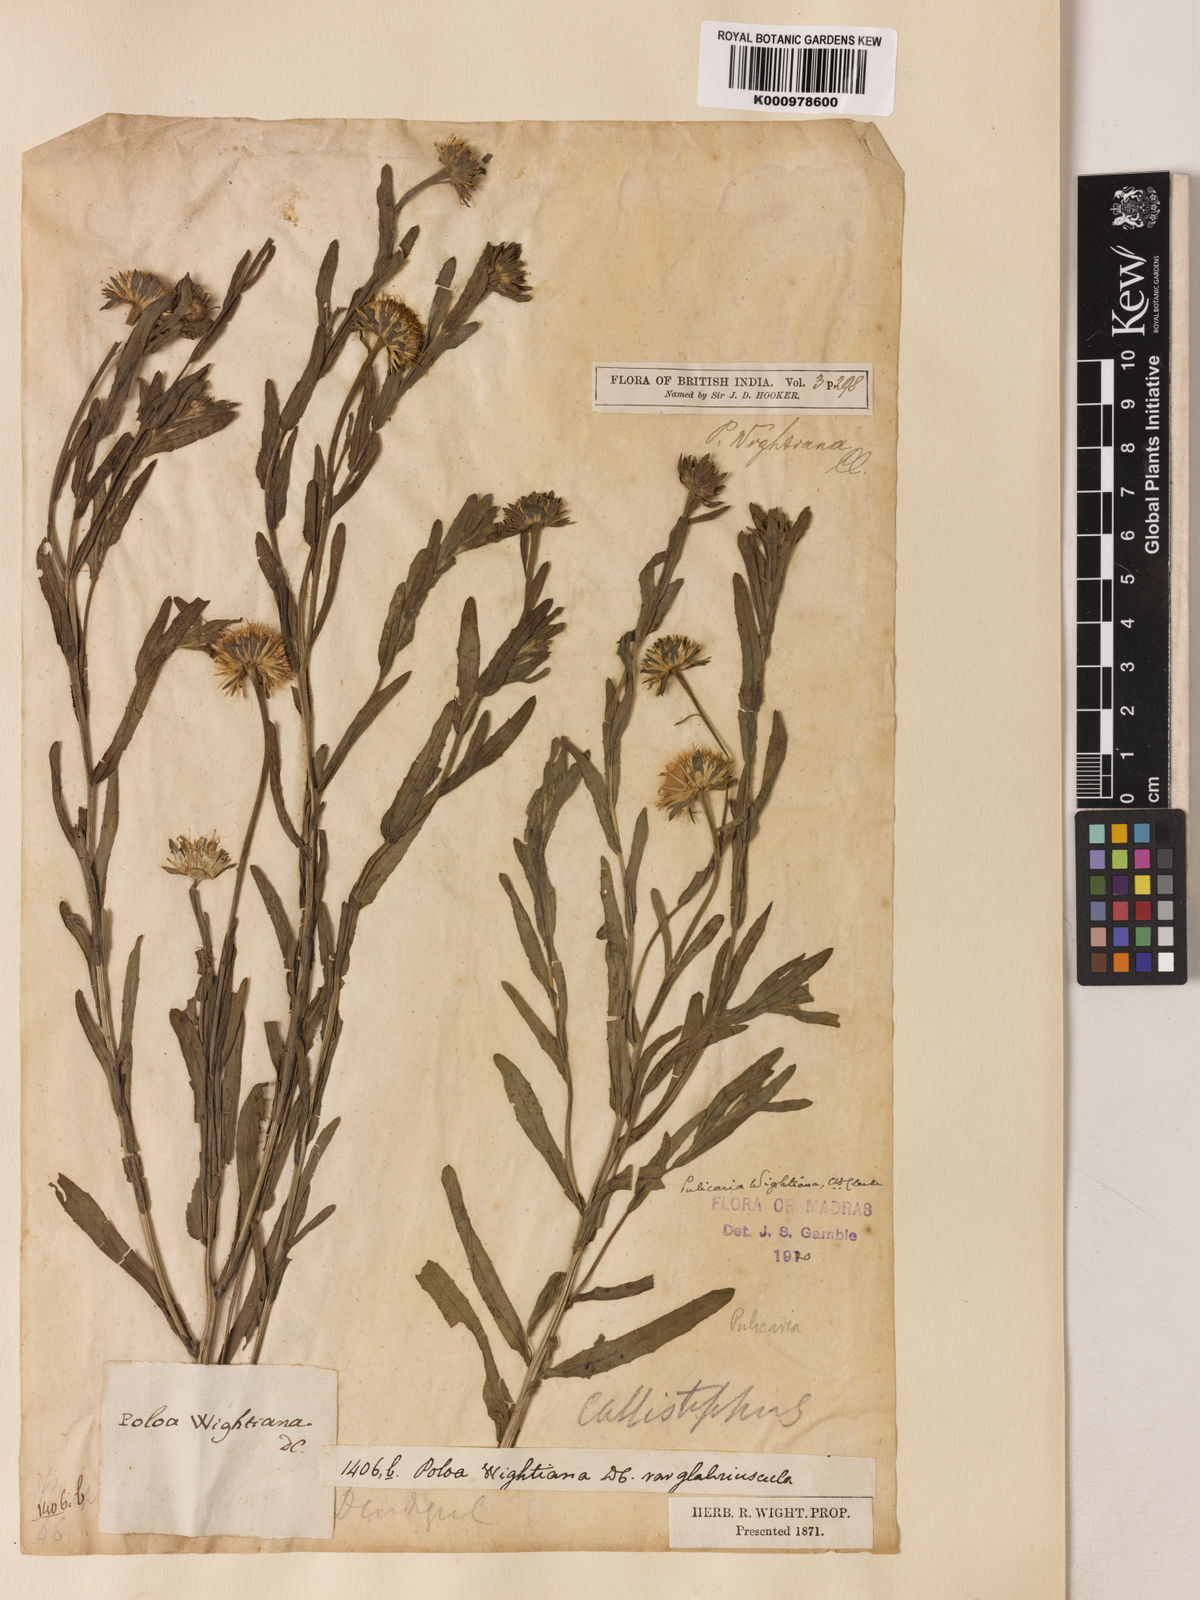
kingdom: Plantae
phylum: Tracheophyta
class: Magnoliopsida
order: Asterales
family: Asteraceae
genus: Pulicaria
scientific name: Pulicaria wightiana
